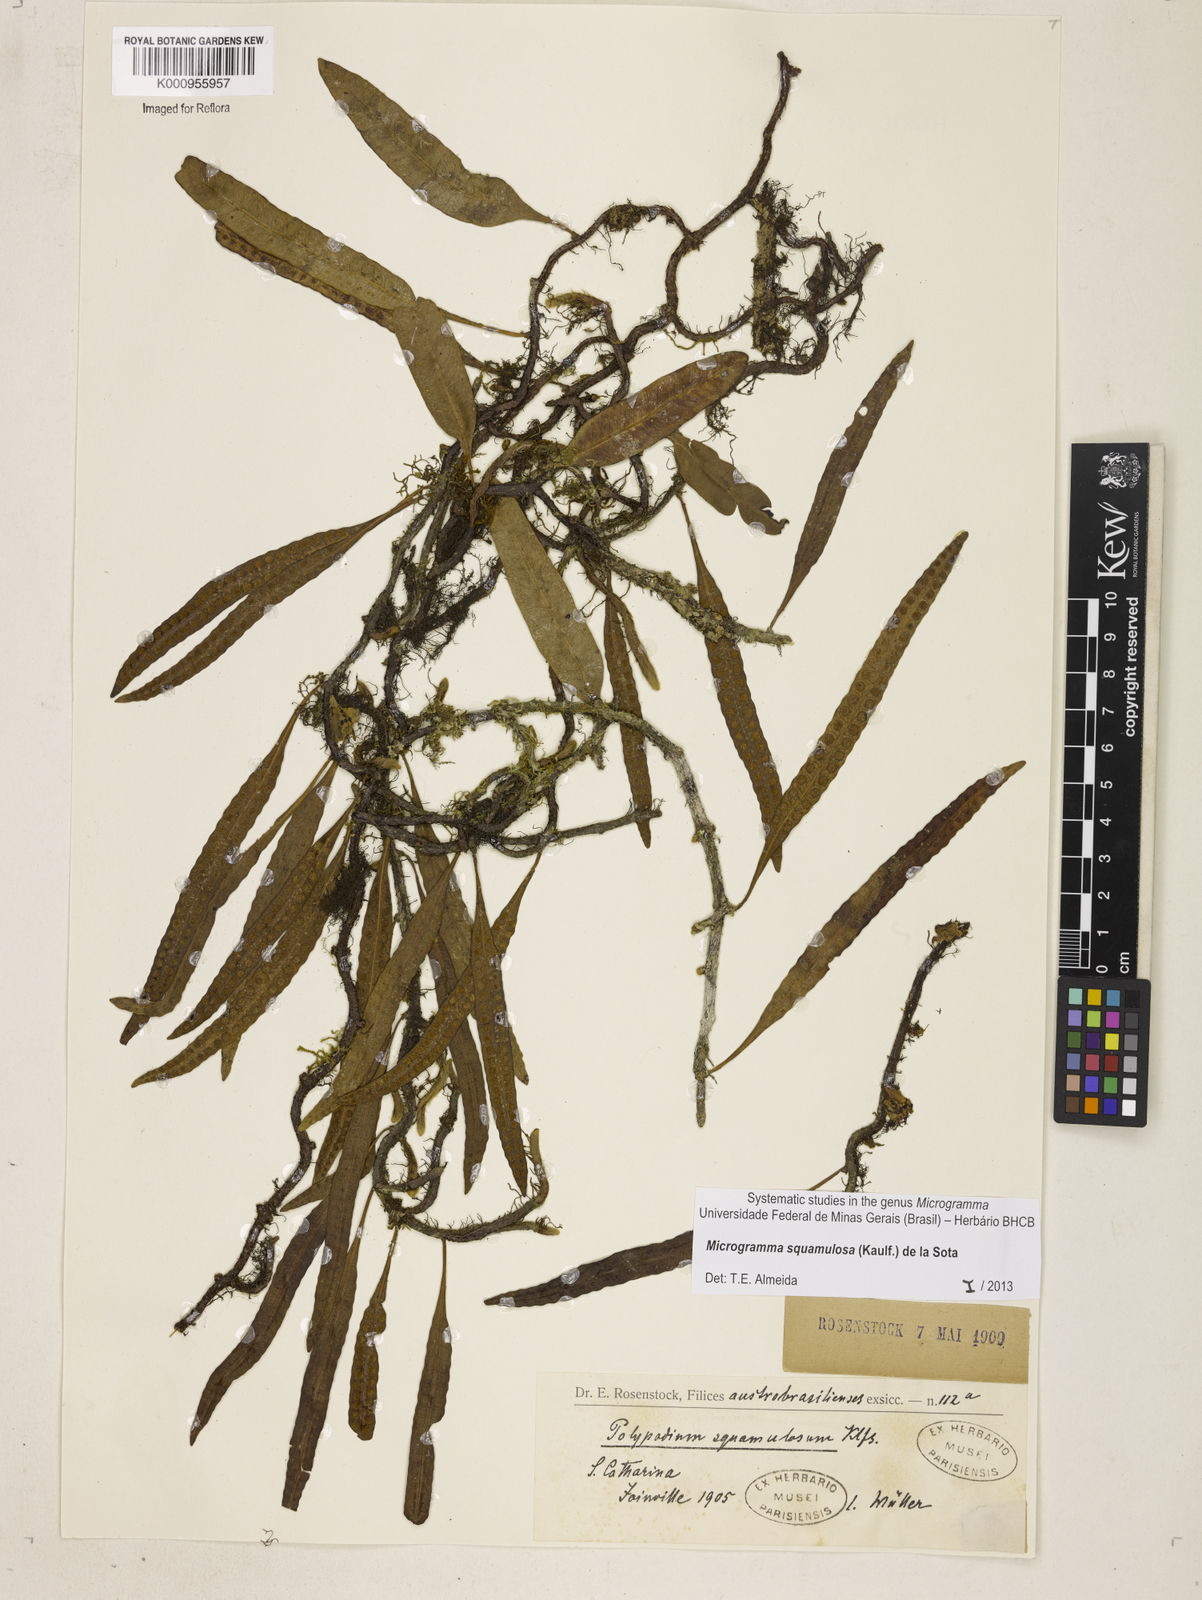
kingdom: Plantae
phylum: Tracheophyta
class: Polypodiopsida
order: Polypodiales
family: Polypodiaceae
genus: Microgramma
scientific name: Microgramma squamulosa
